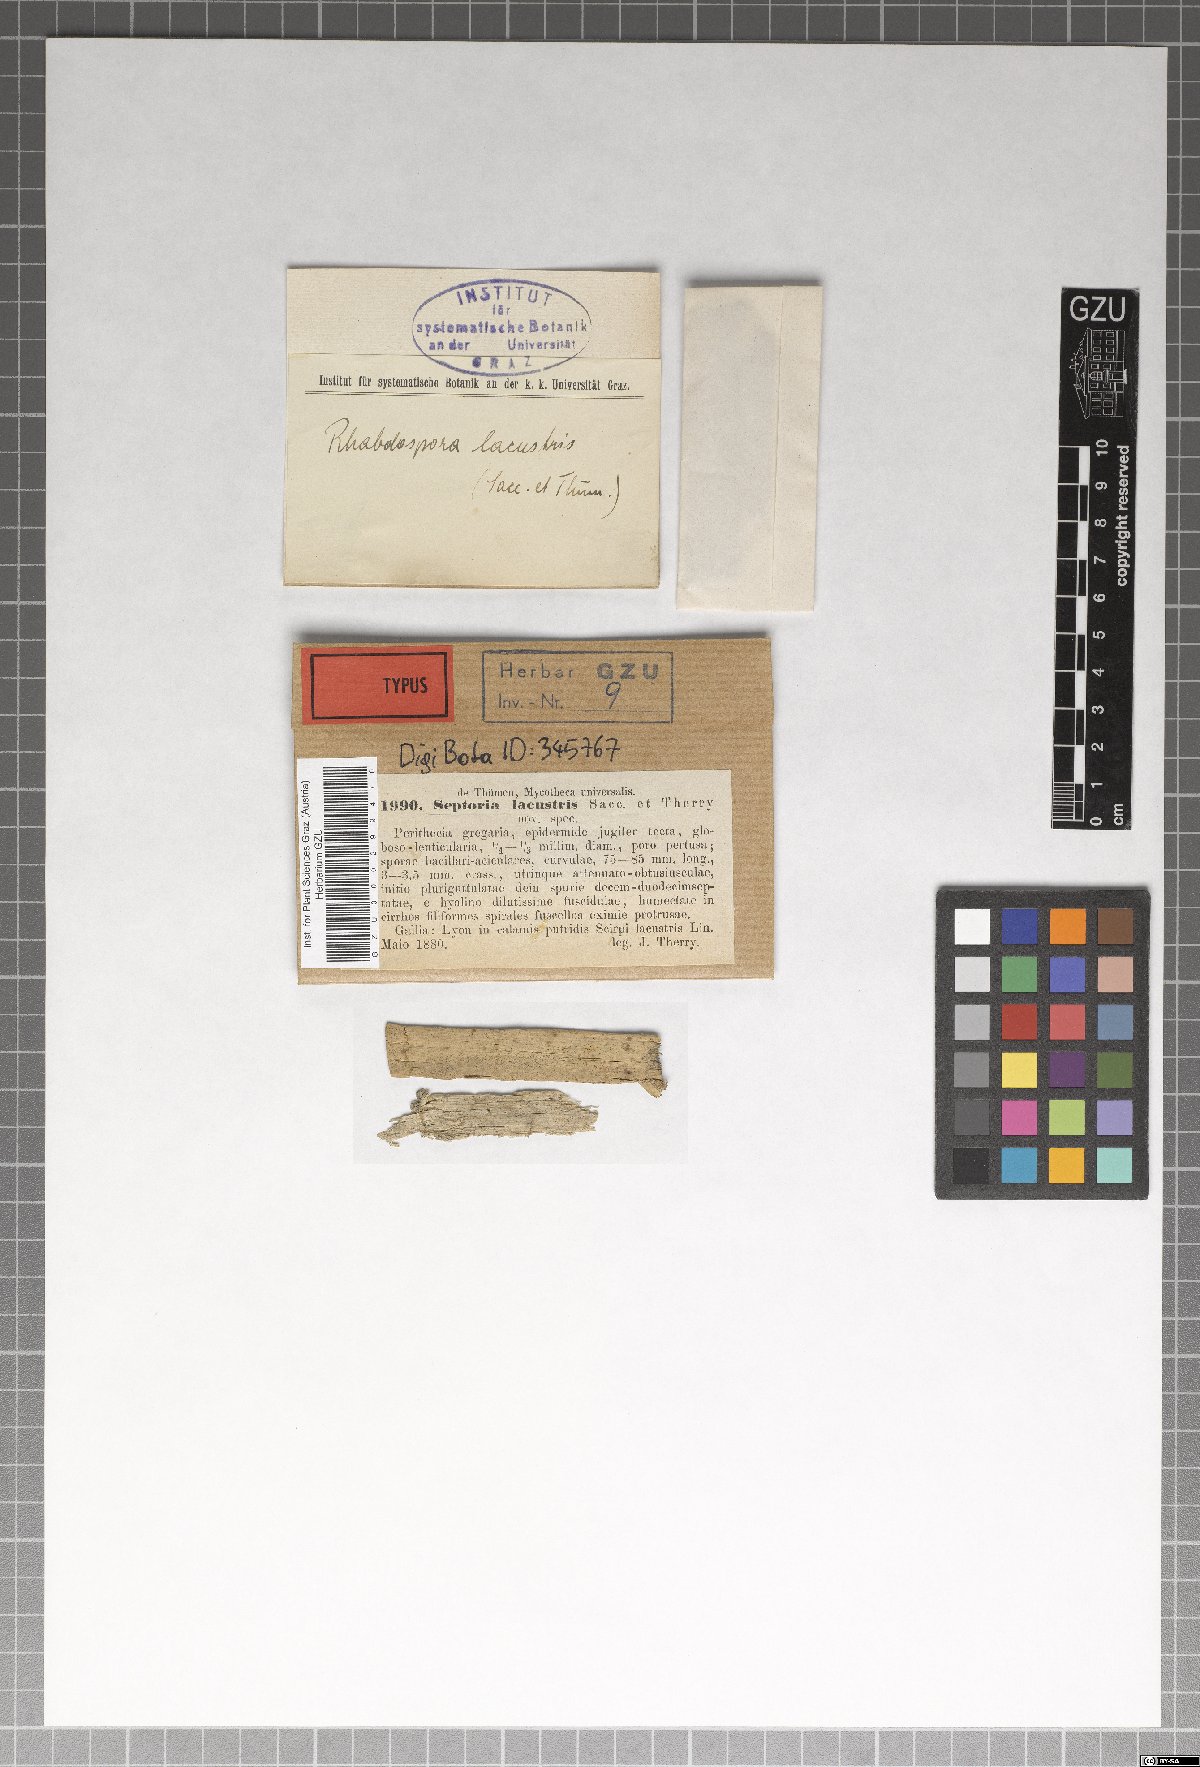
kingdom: Fungi
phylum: Ascomycota
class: Dothideomycetes
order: Capnodiales
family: Mycosphaerellaceae
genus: Septoria
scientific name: Septoria lacustris
